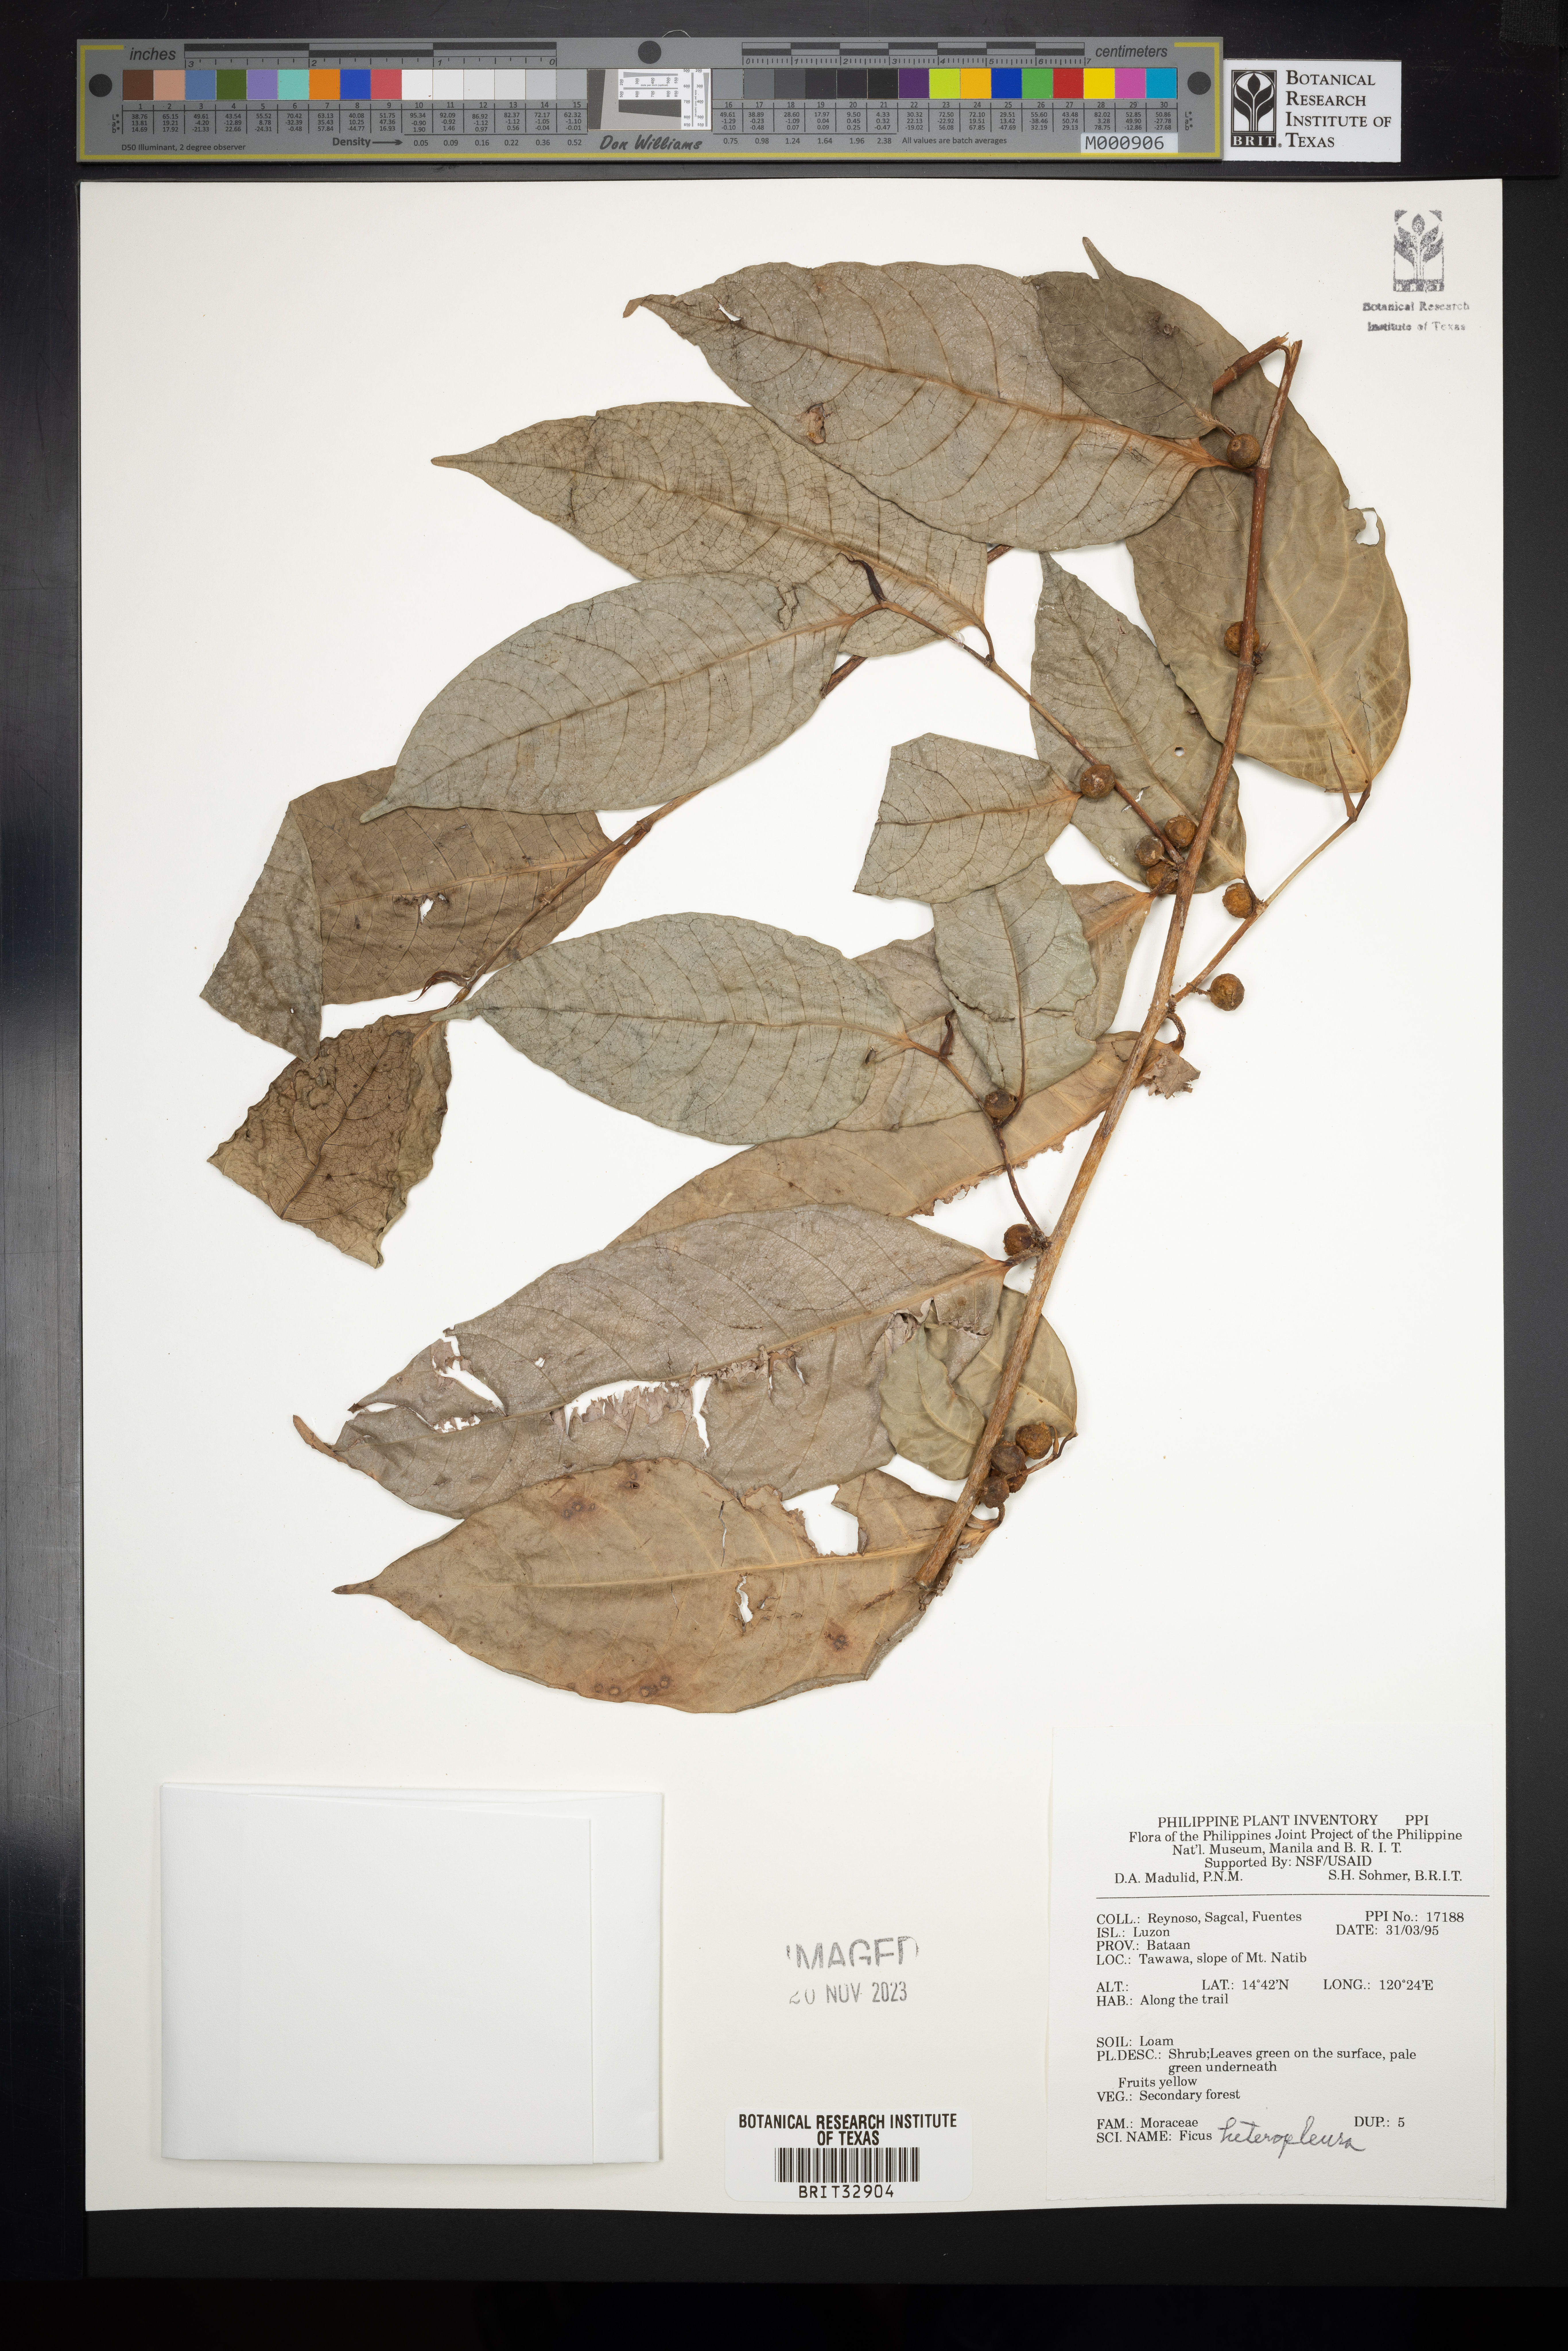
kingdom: Plantae
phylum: Tracheophyta
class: Magnoliopsida
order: Rosales
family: Moraceae
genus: Ficus
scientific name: Ficus heteropleura
